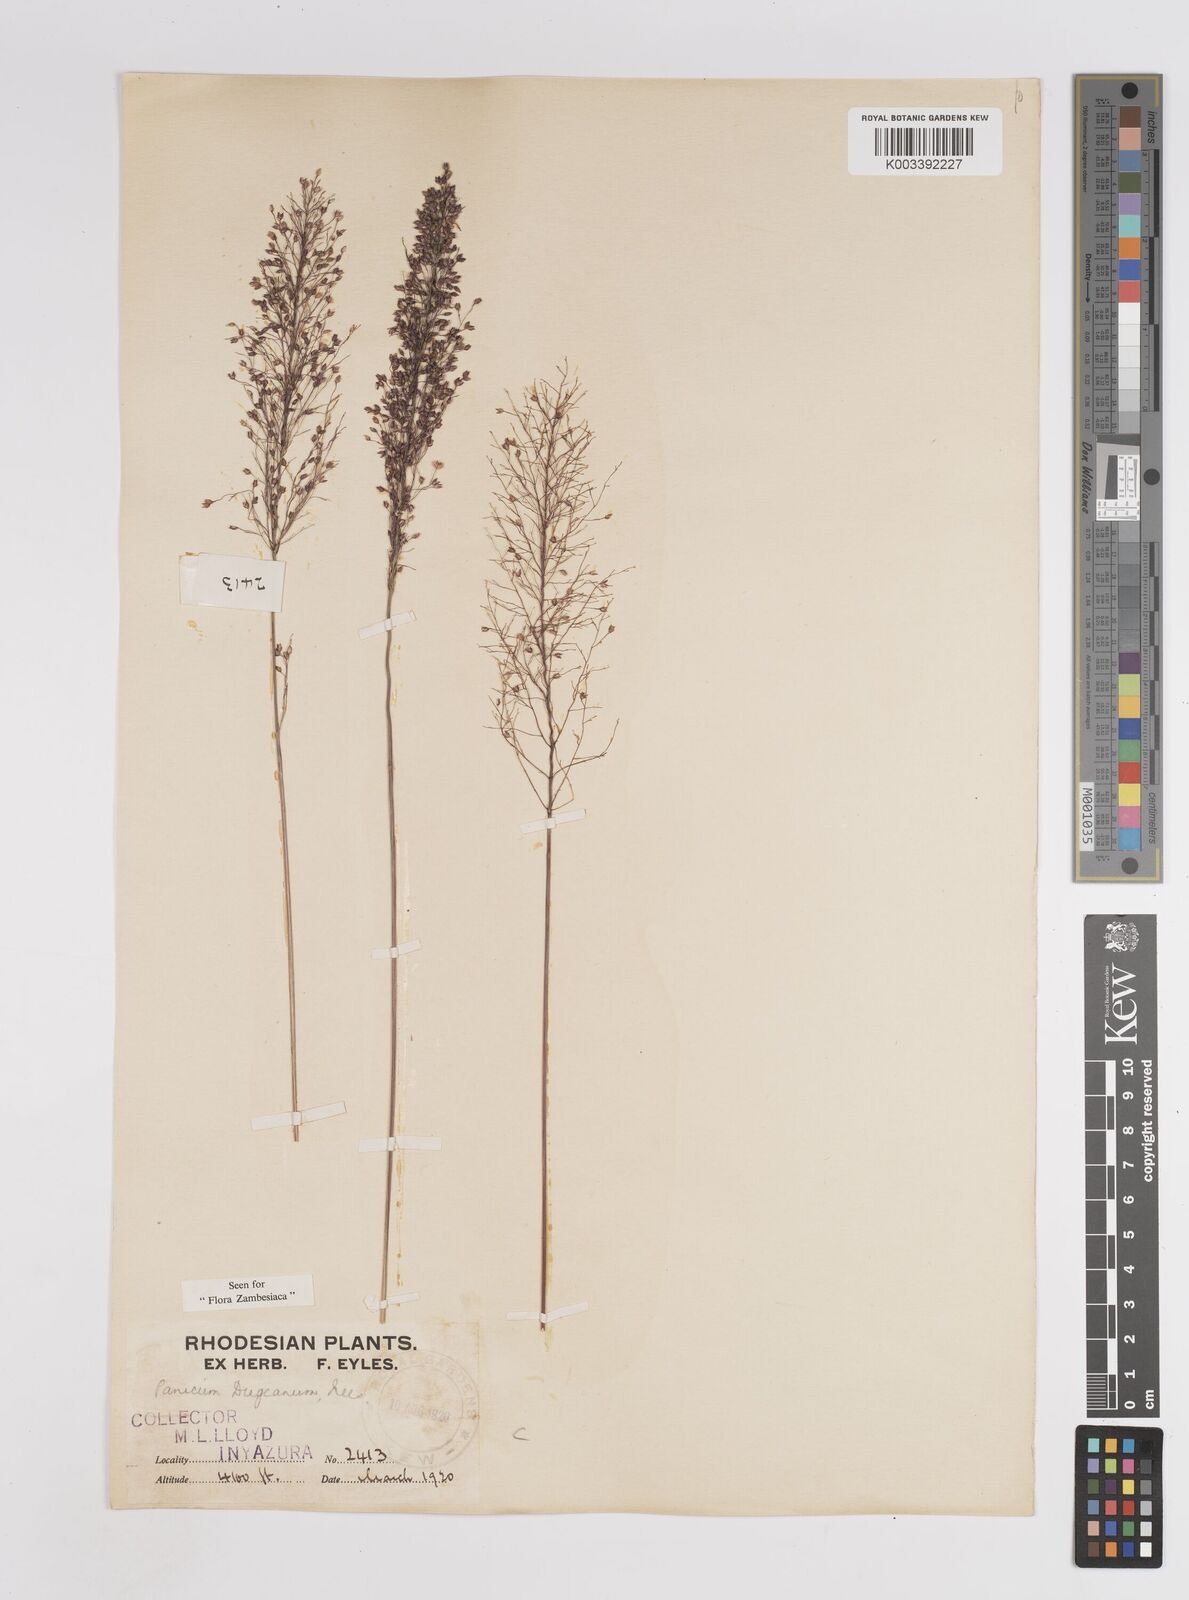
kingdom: Plantae
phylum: Tracheophyta
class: Liliopsida
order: Poales
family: Poaceae
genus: Panicum
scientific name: Panicum dregeanum
